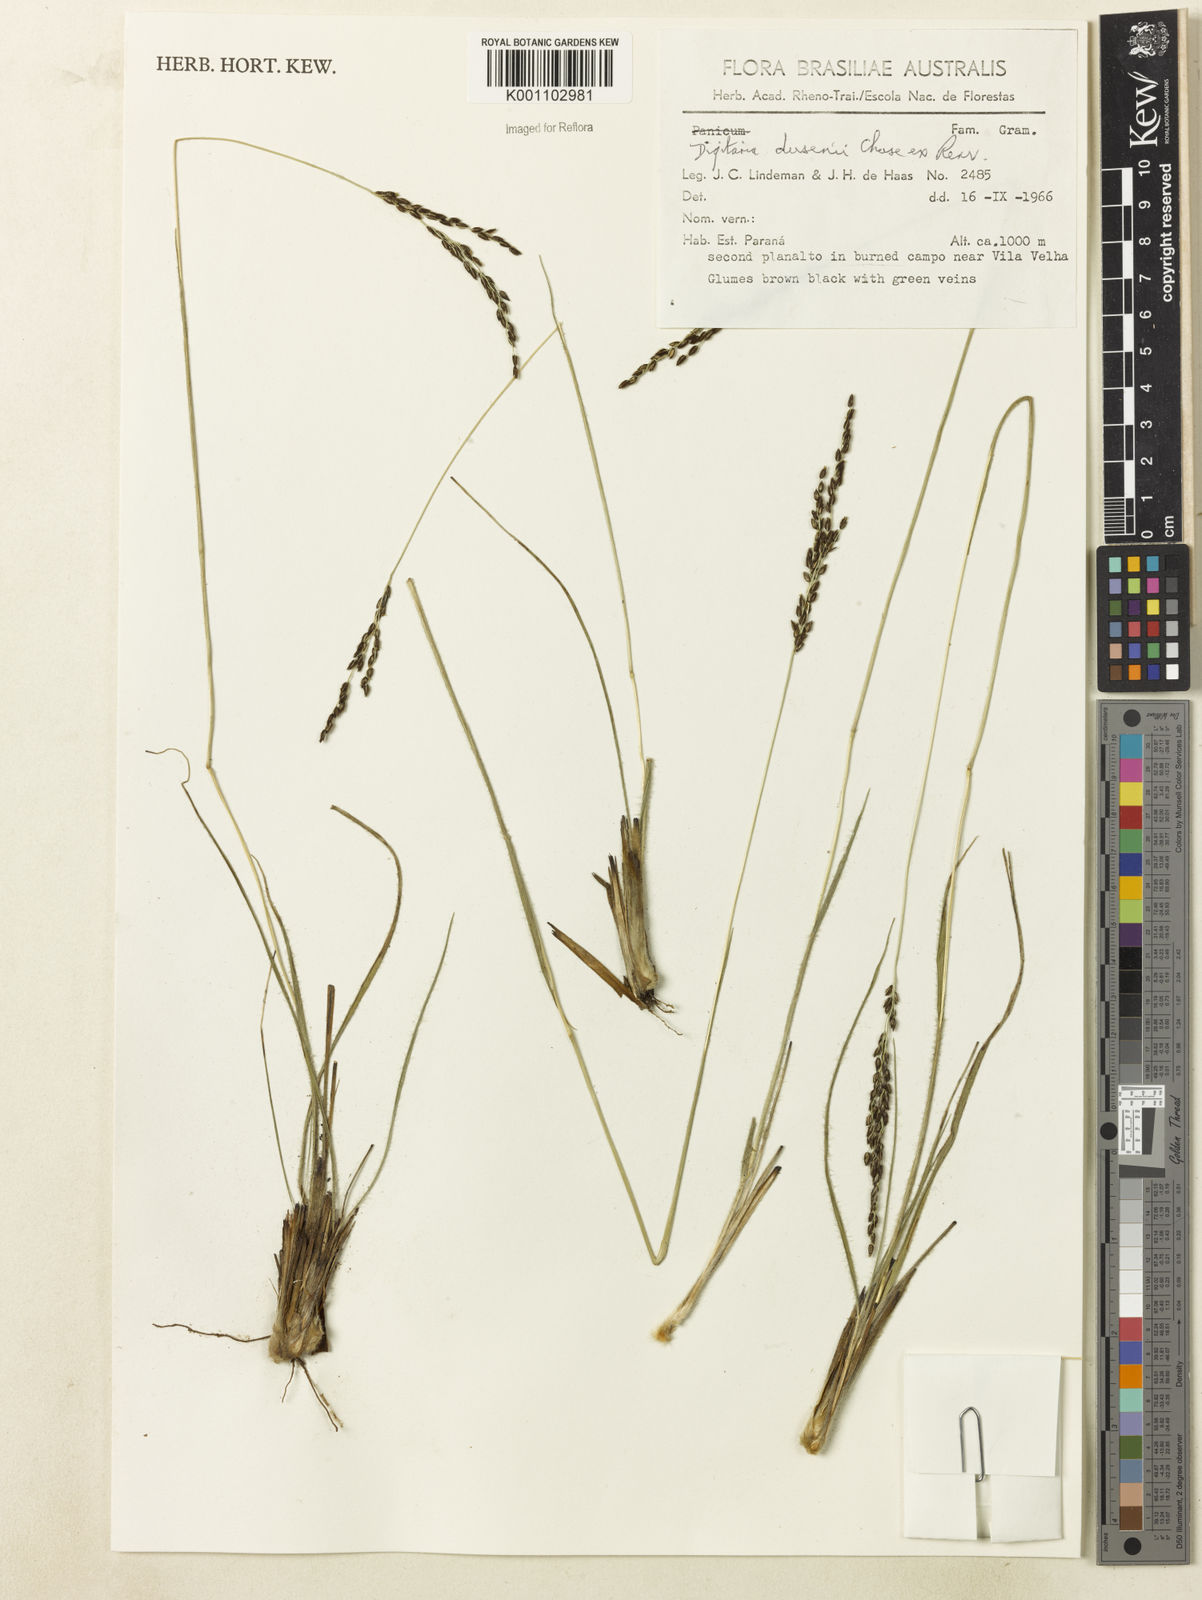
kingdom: Plantae
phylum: Tracheophyta
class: Liliopsida
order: Poales
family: Poaceae
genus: Digitaria
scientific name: Digitaria purpurea
